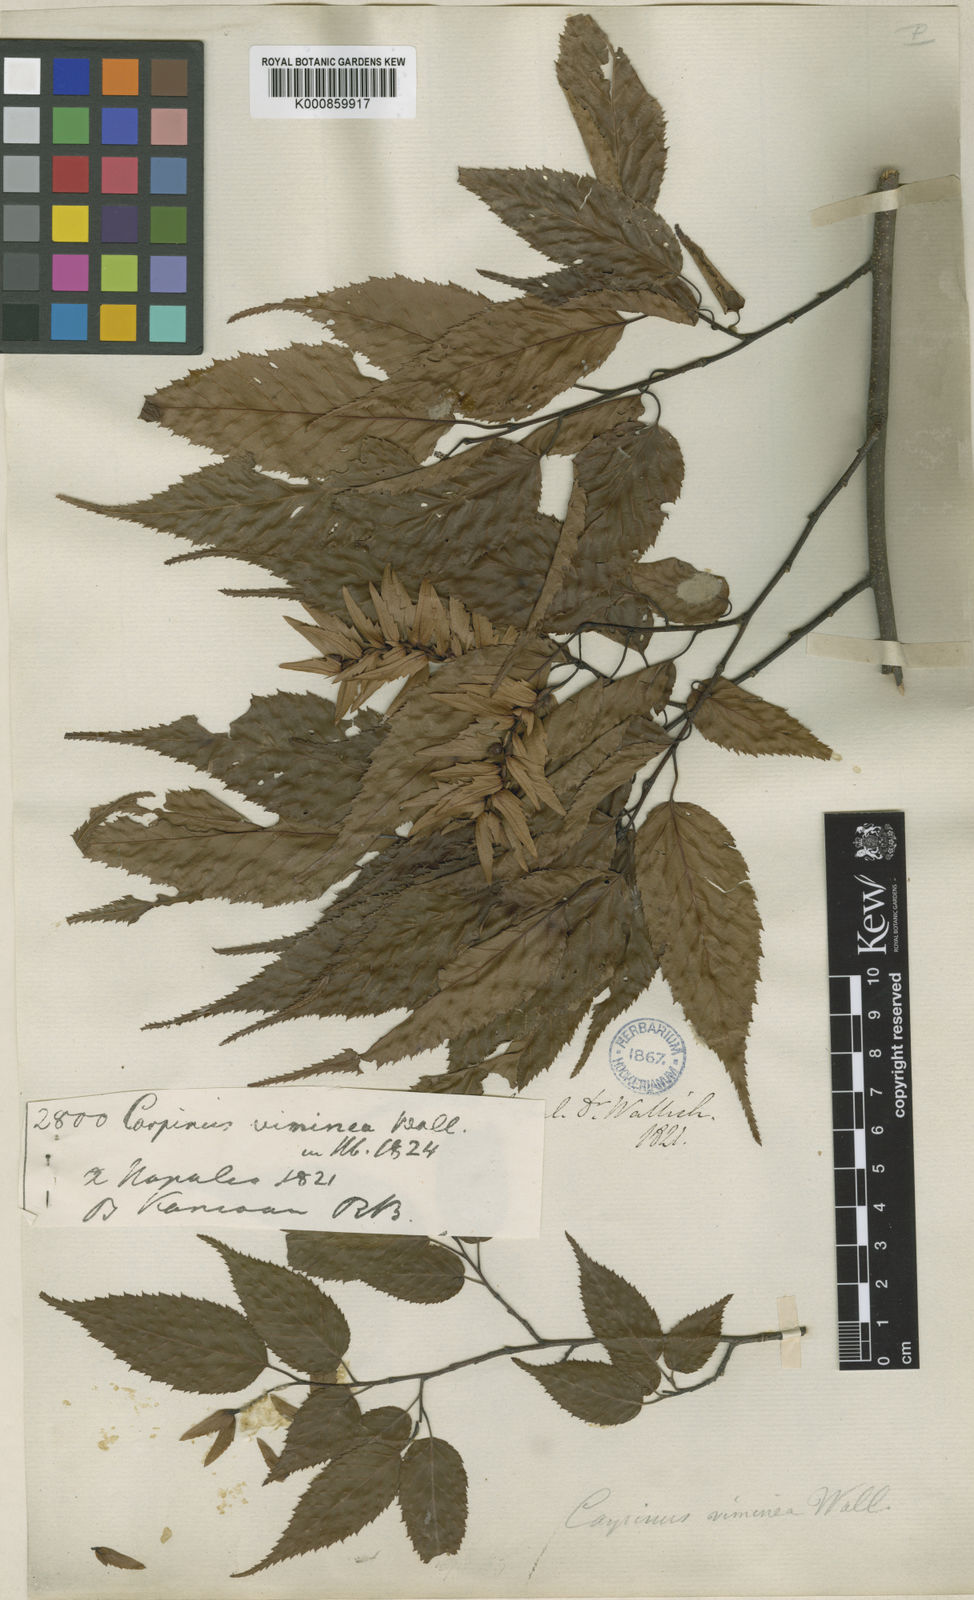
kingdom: Plantae
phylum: Tracheophyta
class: Magnoliopsida
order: Fagales
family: Betulaceae
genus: Carpinus
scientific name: Carpinus
